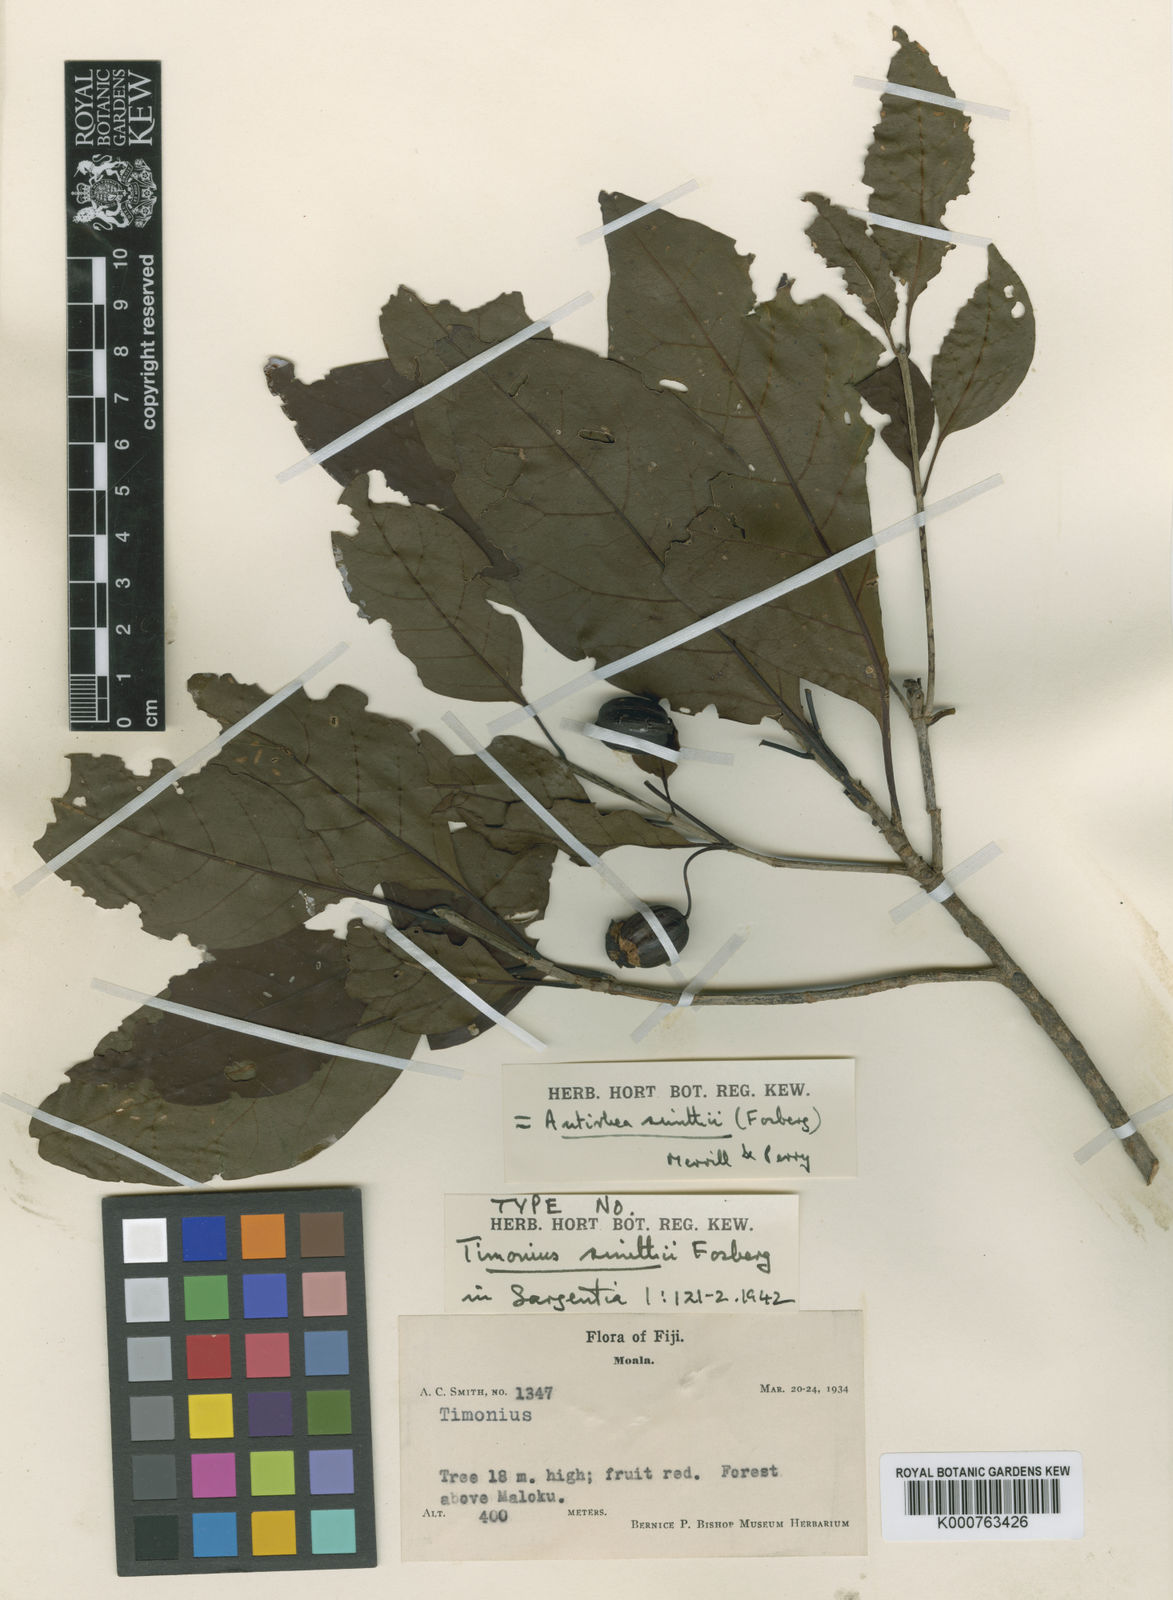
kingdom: Plantae
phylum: Tracheophyta
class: Magnoliopsida
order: Gentianales
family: Rubiaceae
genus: Achilleanthus
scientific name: Achilleanthus smithii
